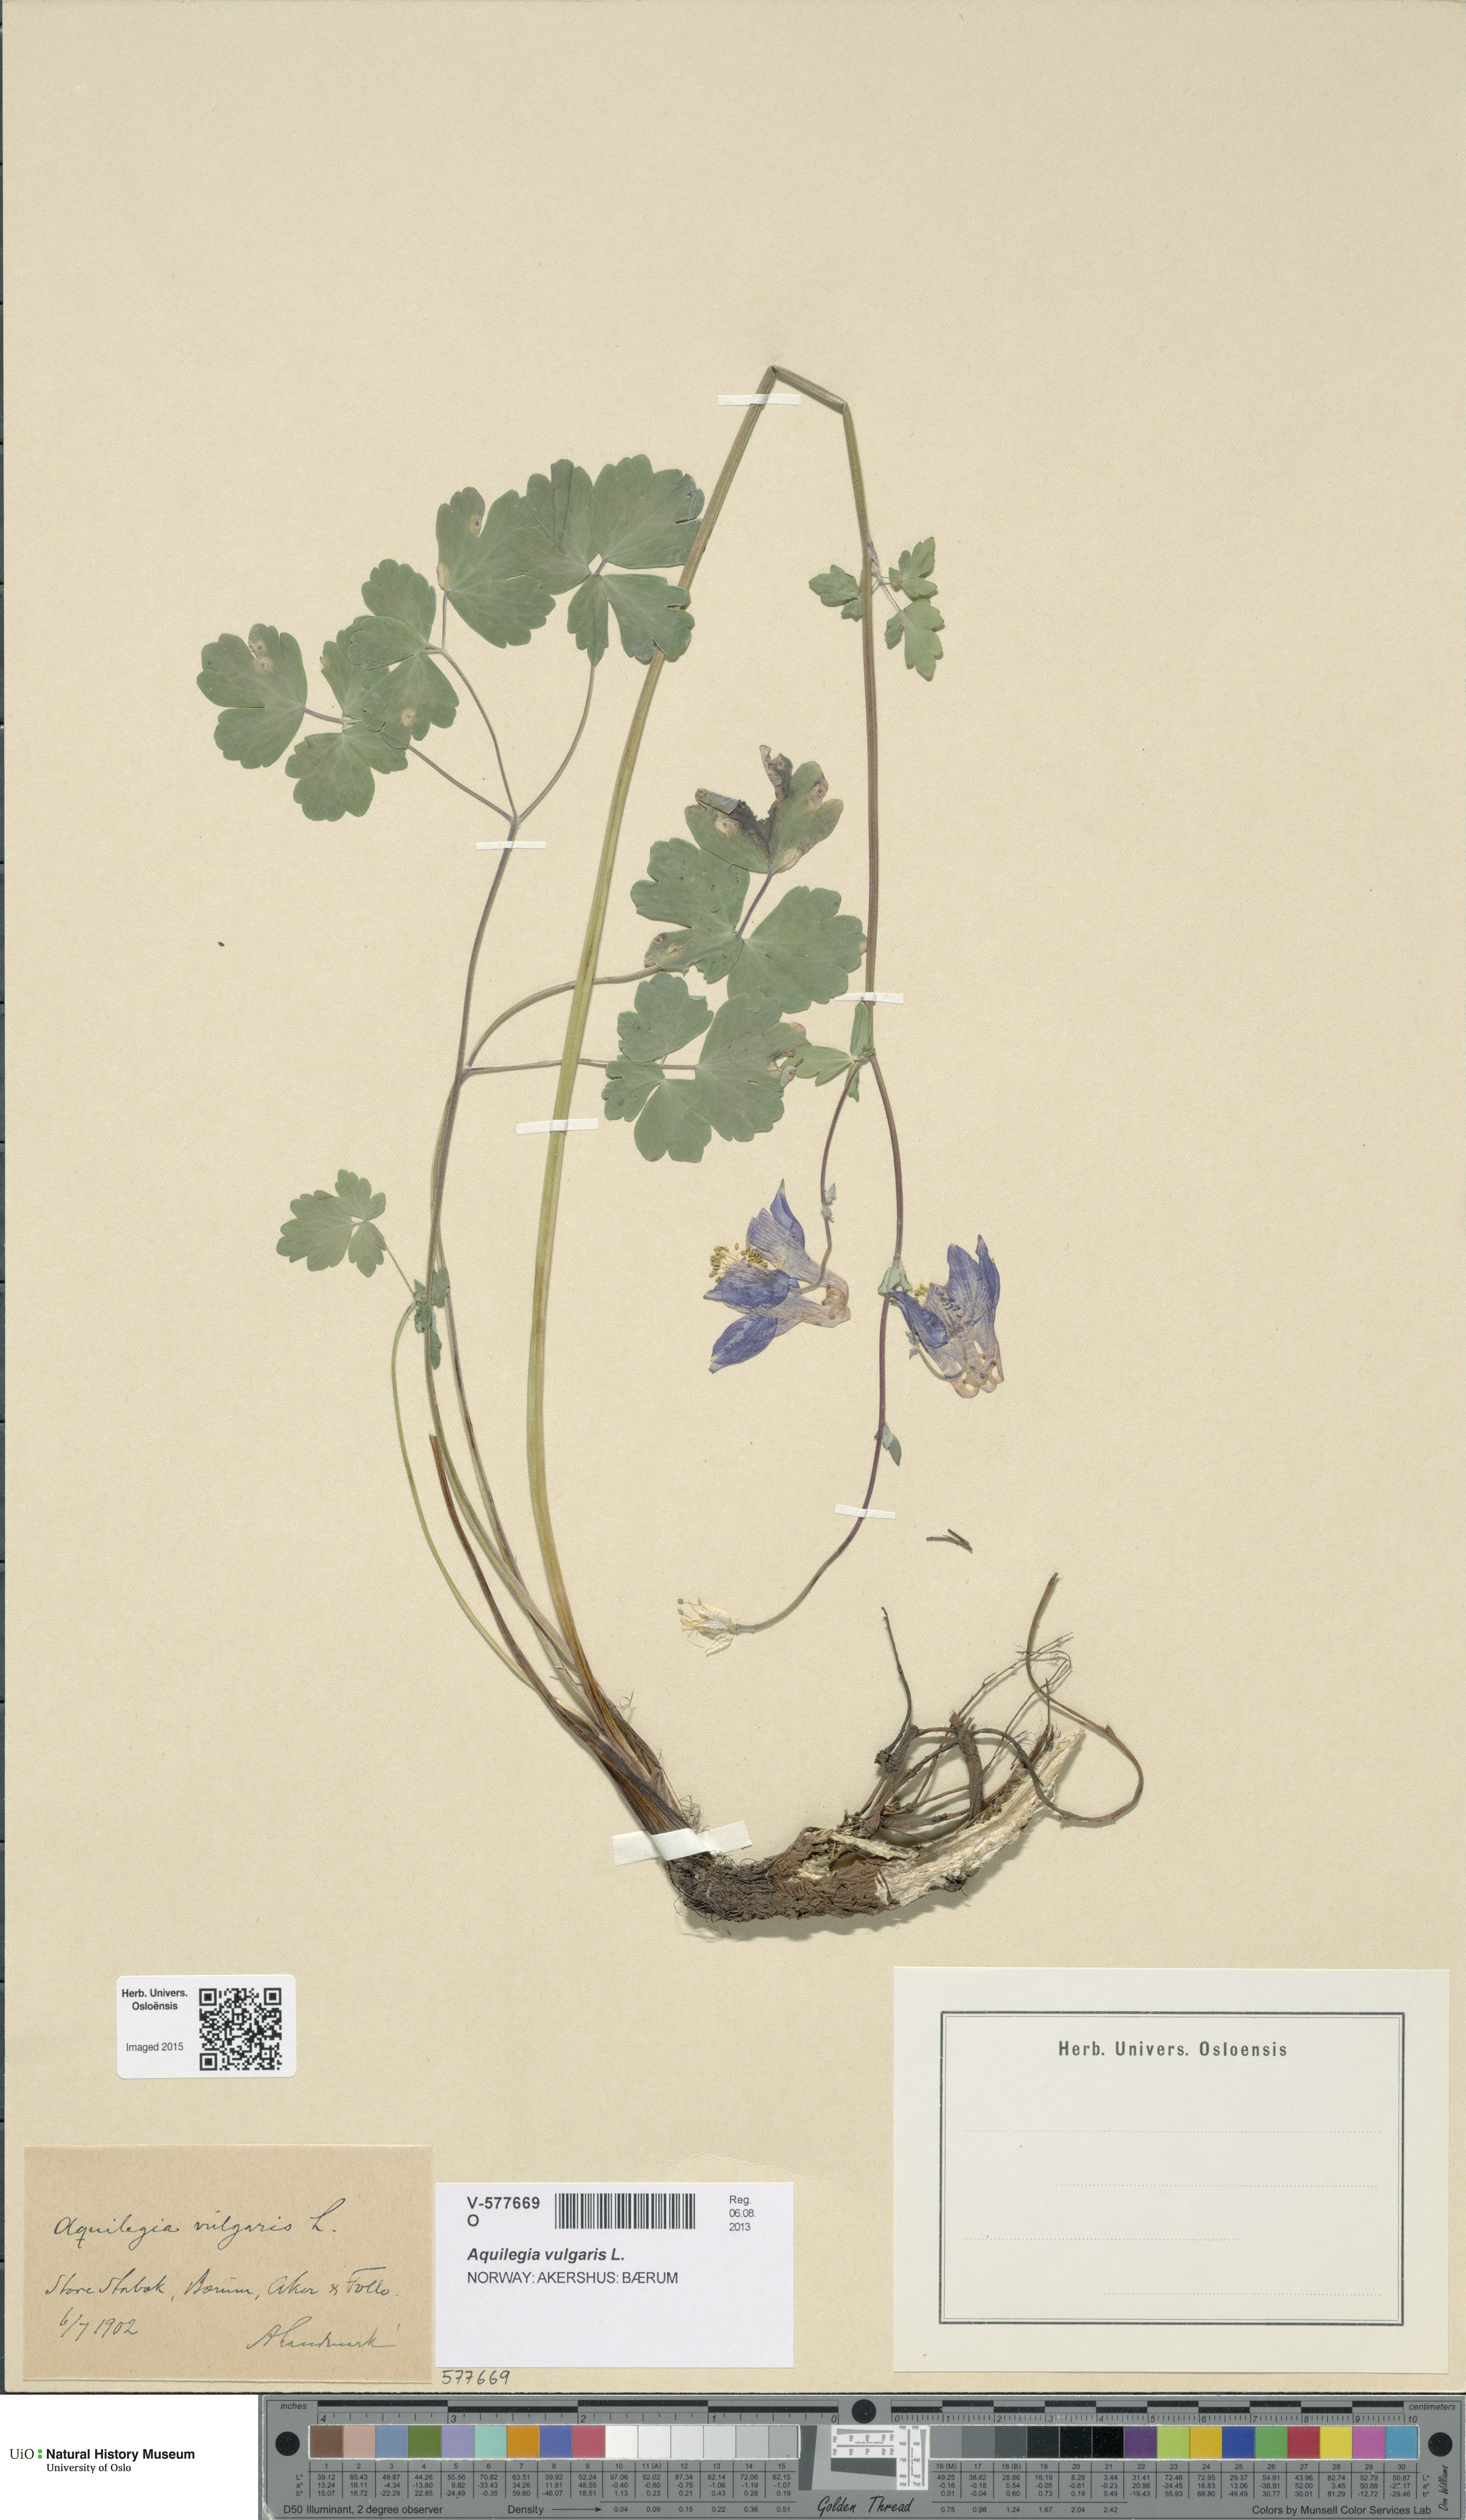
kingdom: Plantae
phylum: Tracheophyta
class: Magnoliopsida
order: Ranunculales
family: Ranunculaceae
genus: Aquilegia
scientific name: Aquilegia vulgaris
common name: Columbine
